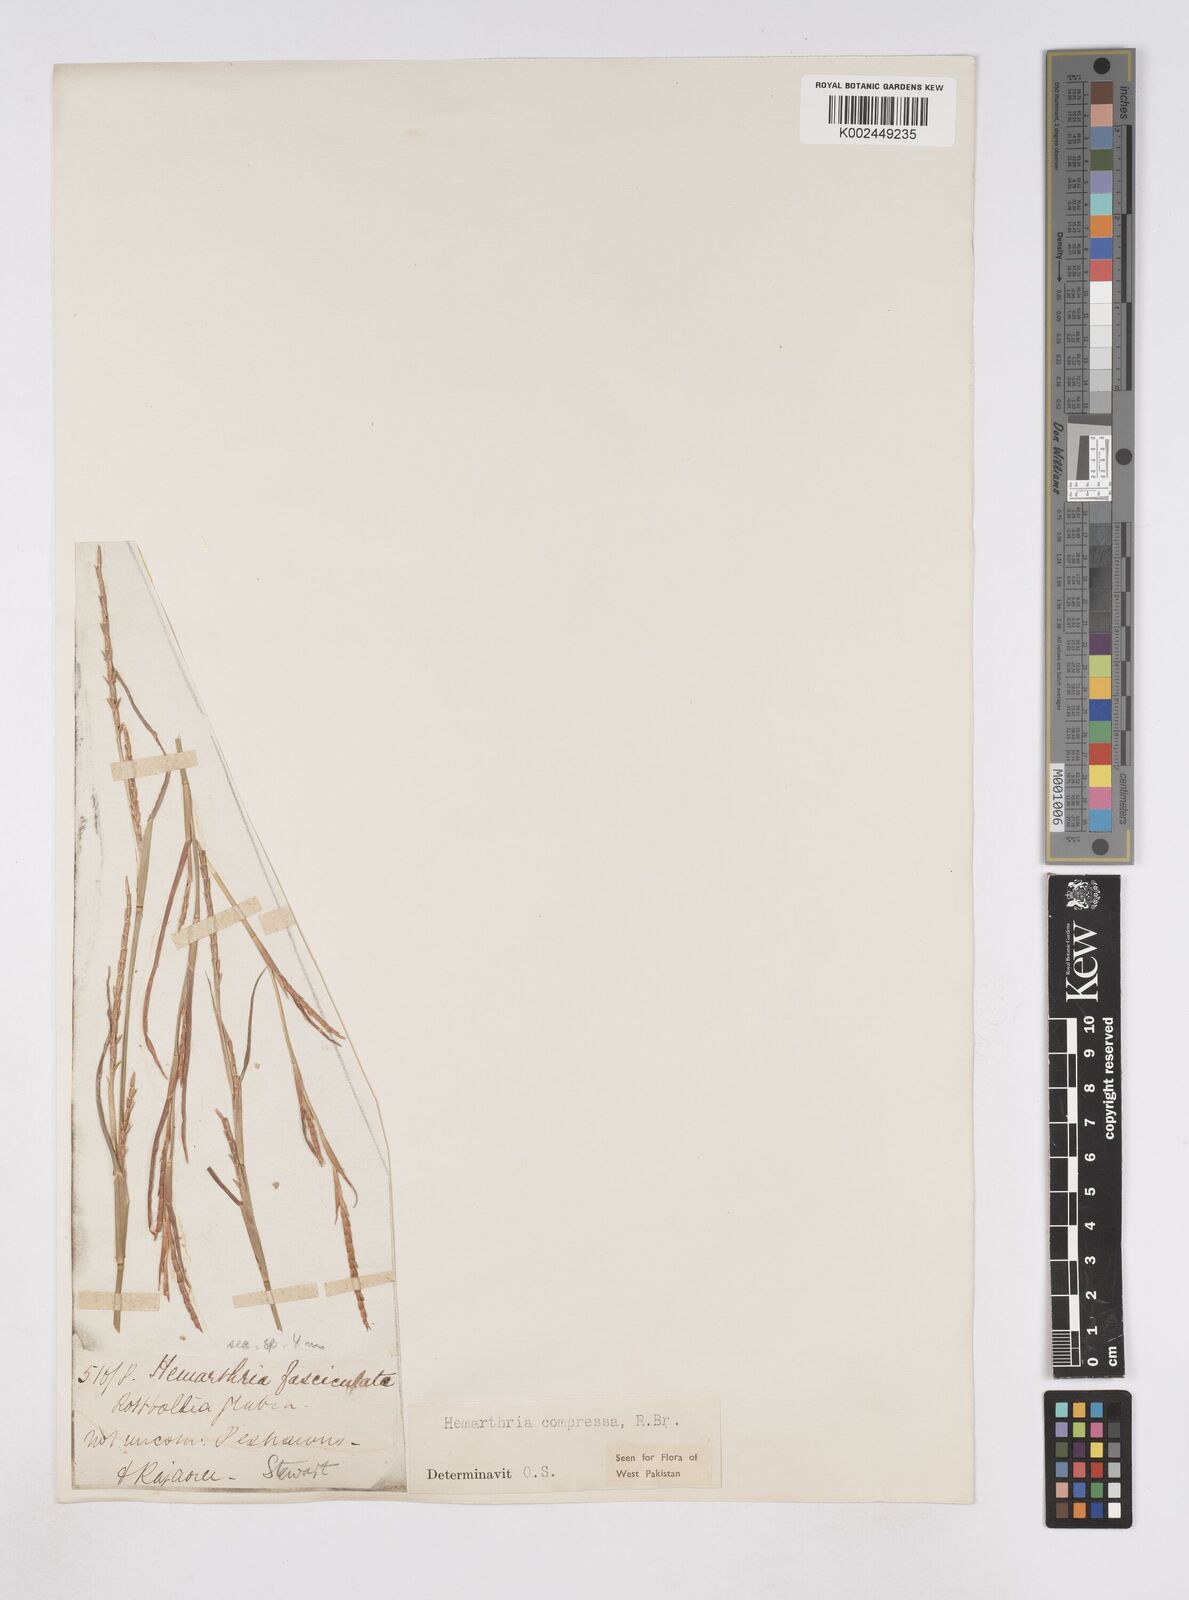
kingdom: Plantae
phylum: Tracheophyta
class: Liliopsida
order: Poales
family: Poaceae
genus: Hemarthria
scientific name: Hemarthria compressa
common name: Whip grass
